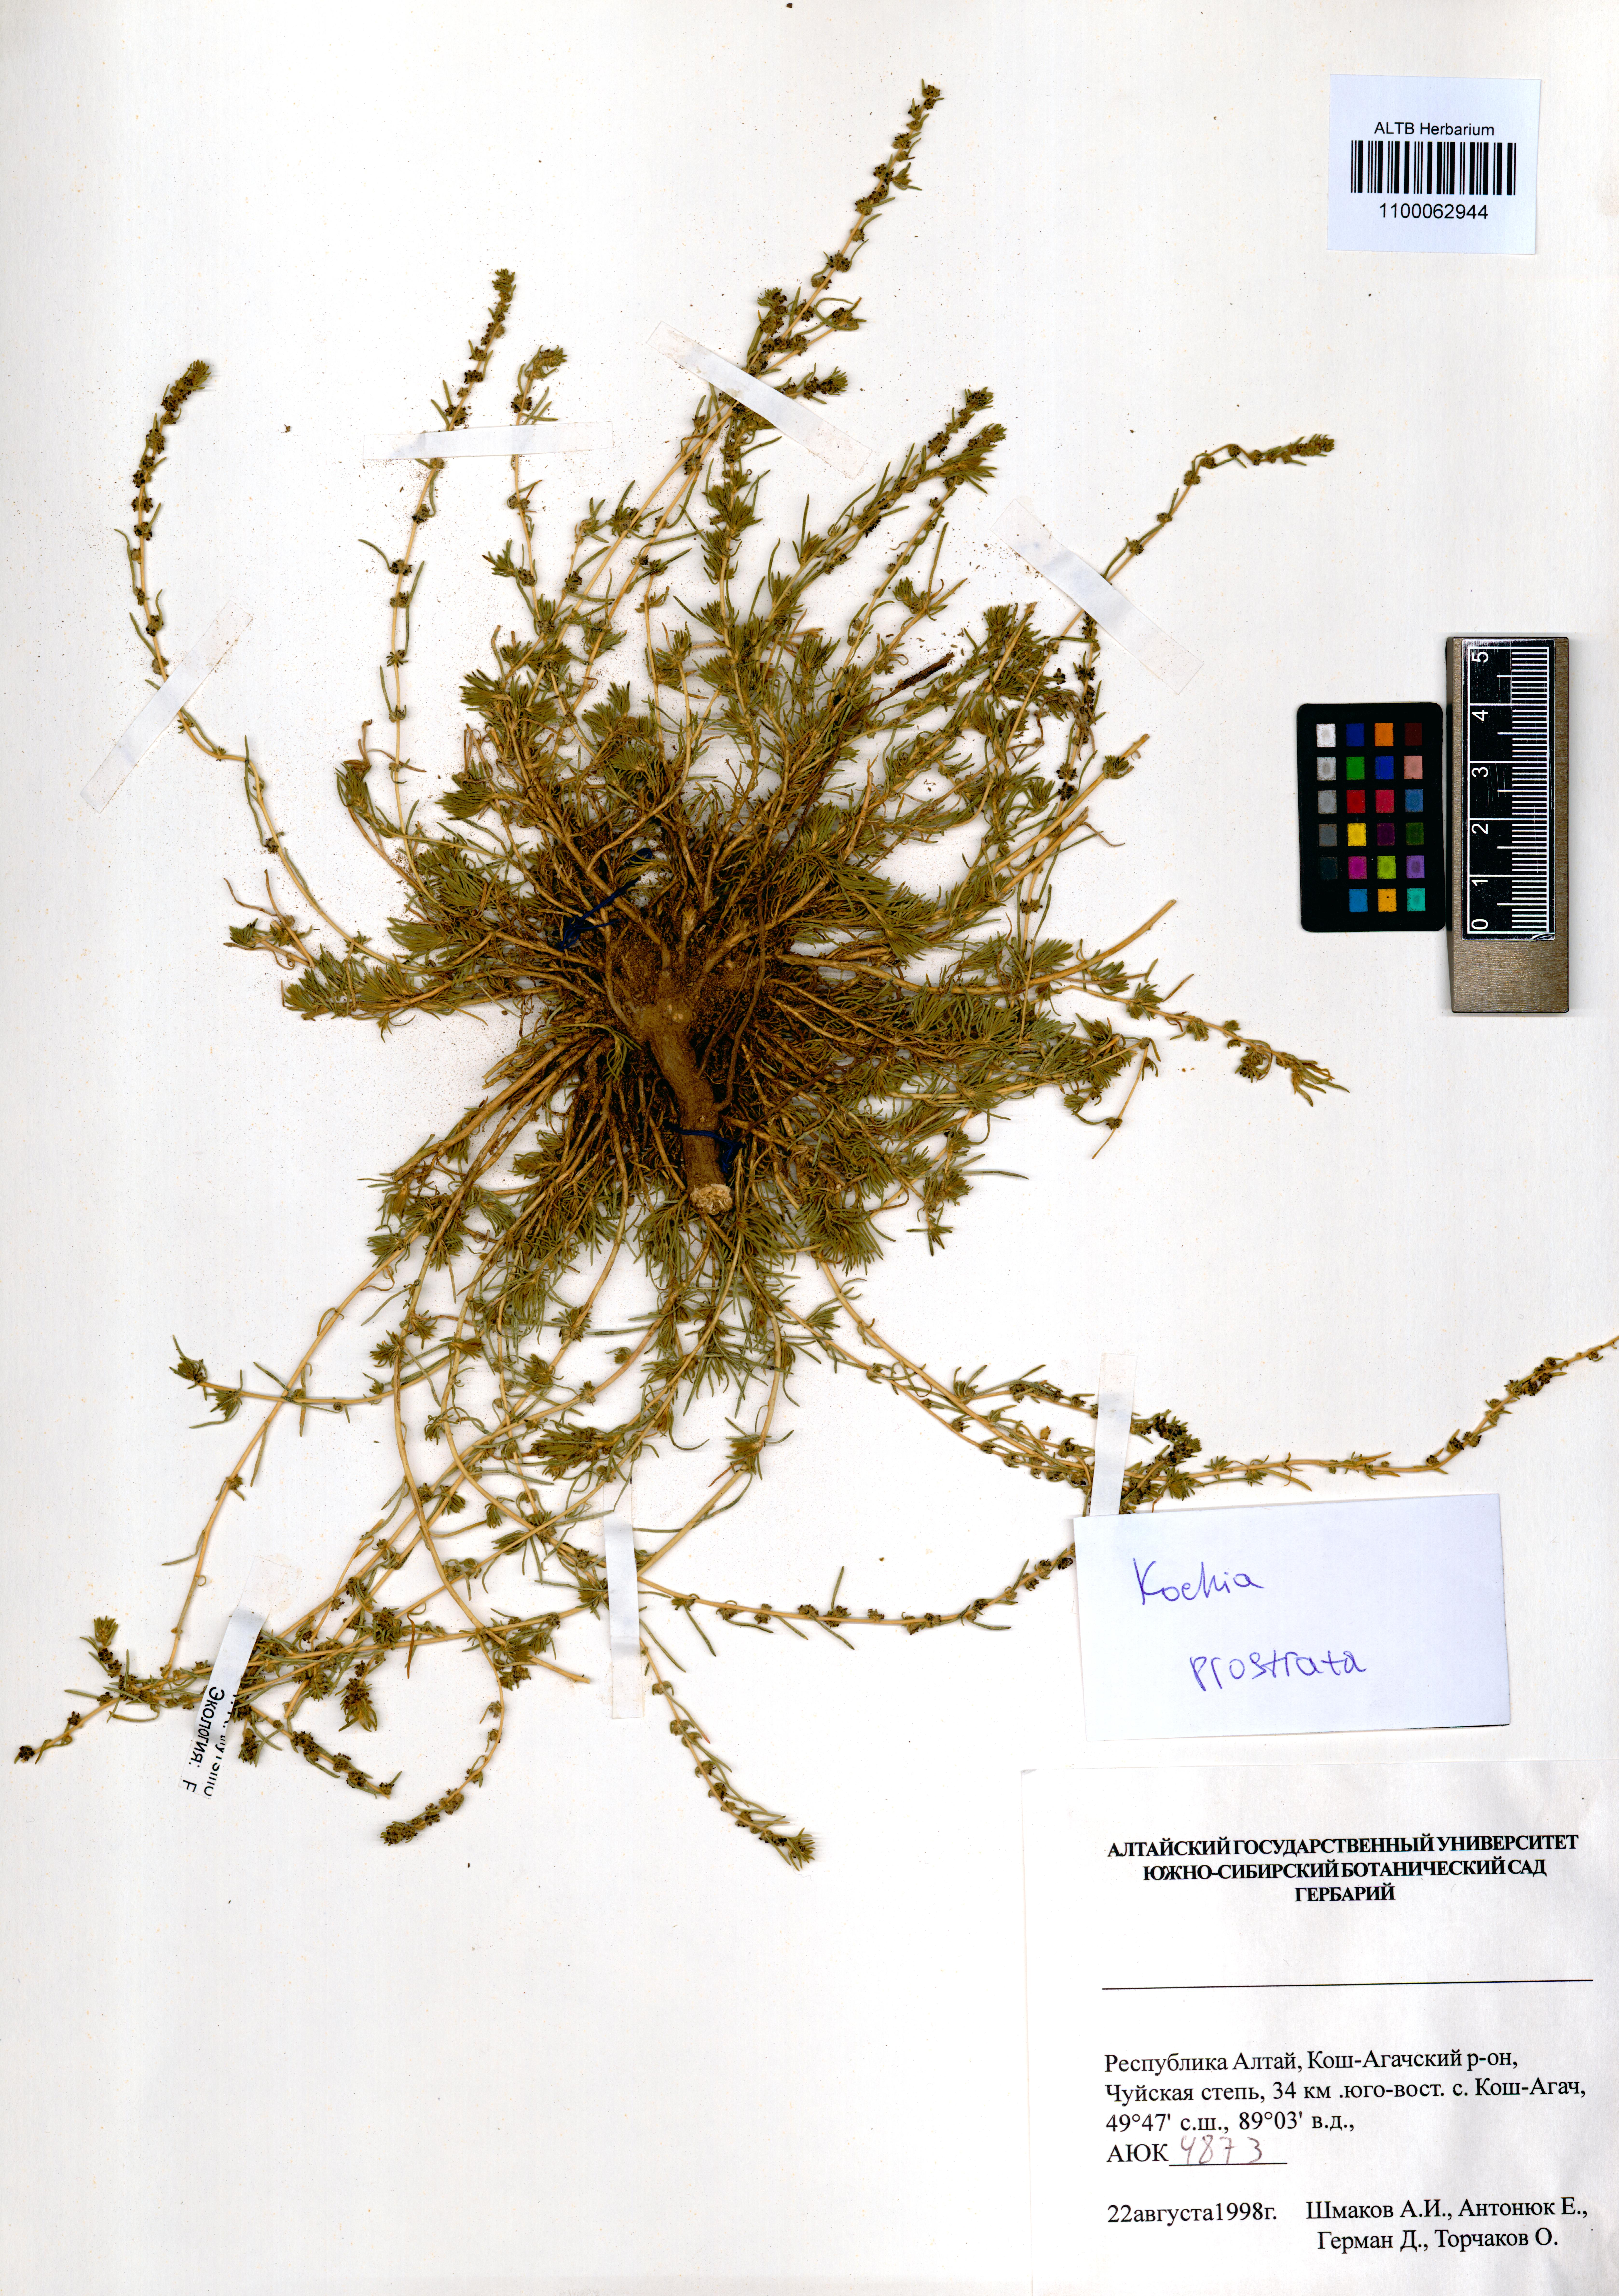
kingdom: Plantae
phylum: Tracheophyta
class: Magnoliopsida
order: Caryophyllales
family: Amaranthaceae
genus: Bassia
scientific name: Bassia prostrata
